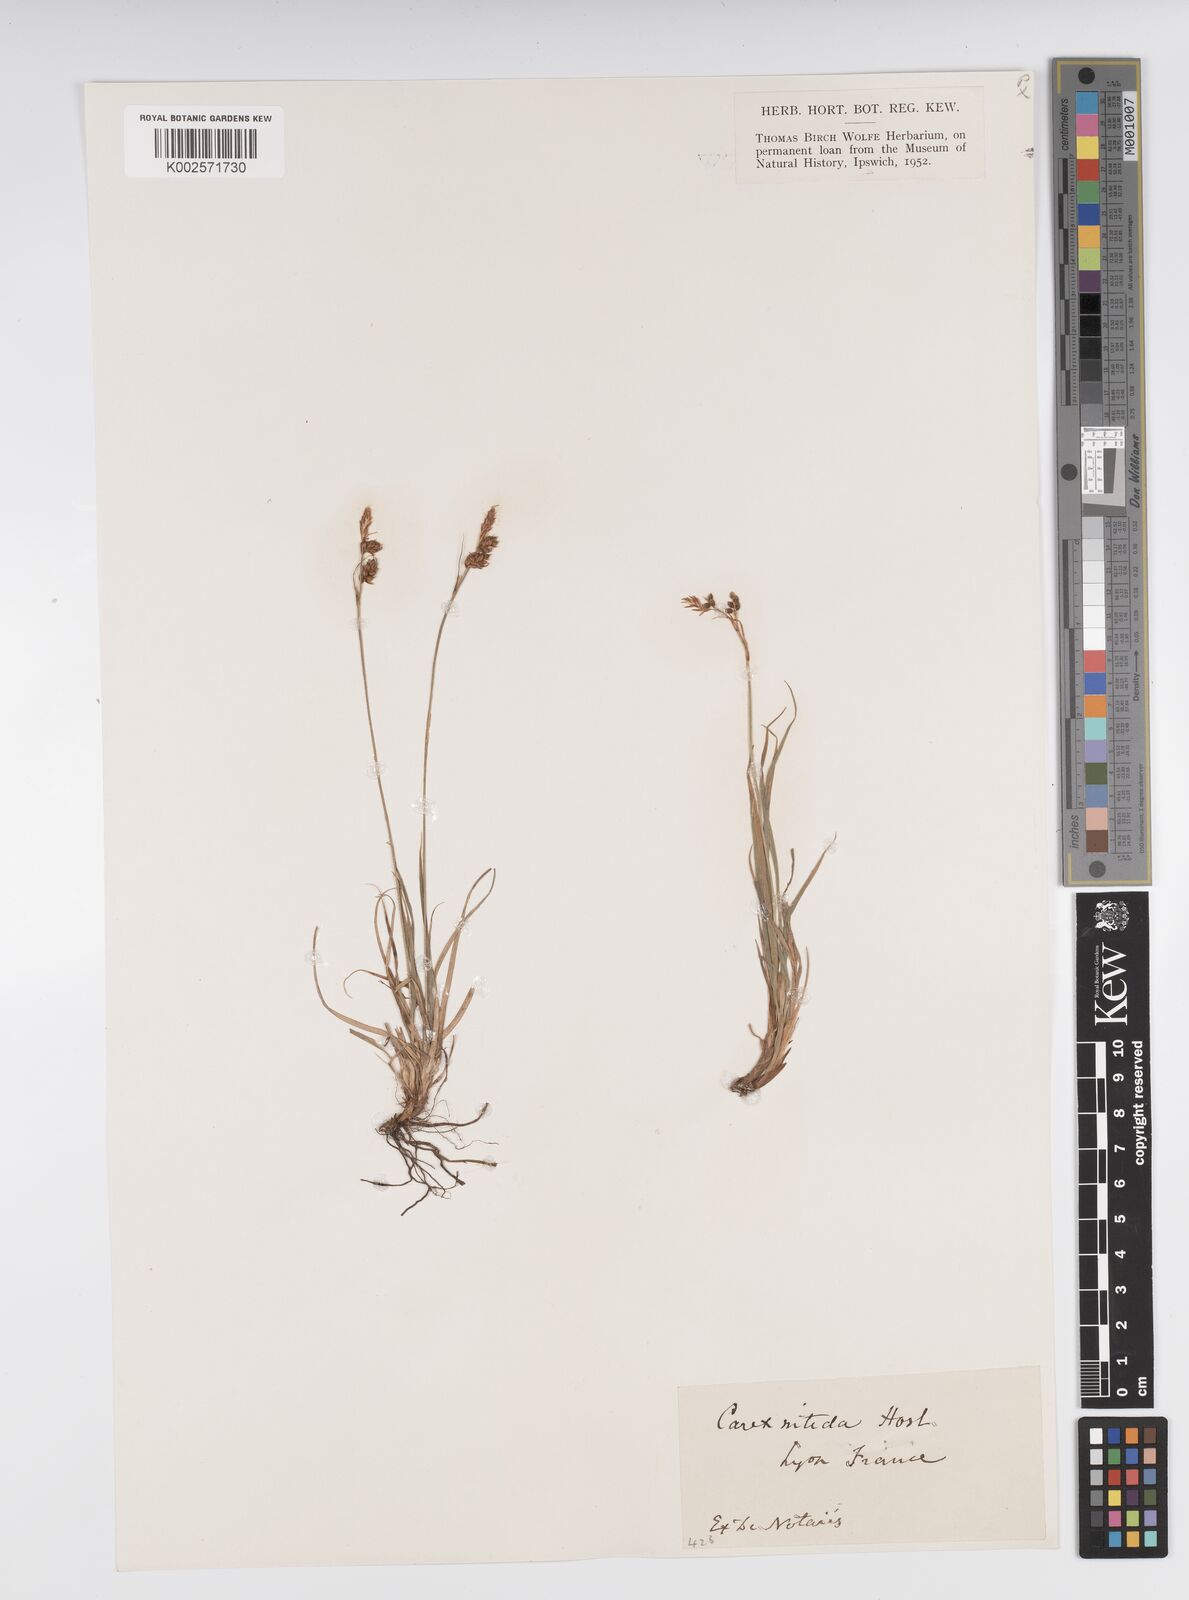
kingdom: Plantae
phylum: Tracheophyta
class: Liliopsida
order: Poales
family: Cyperaceae
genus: Carex
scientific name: Carex caryophyllea
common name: Spring sedge
